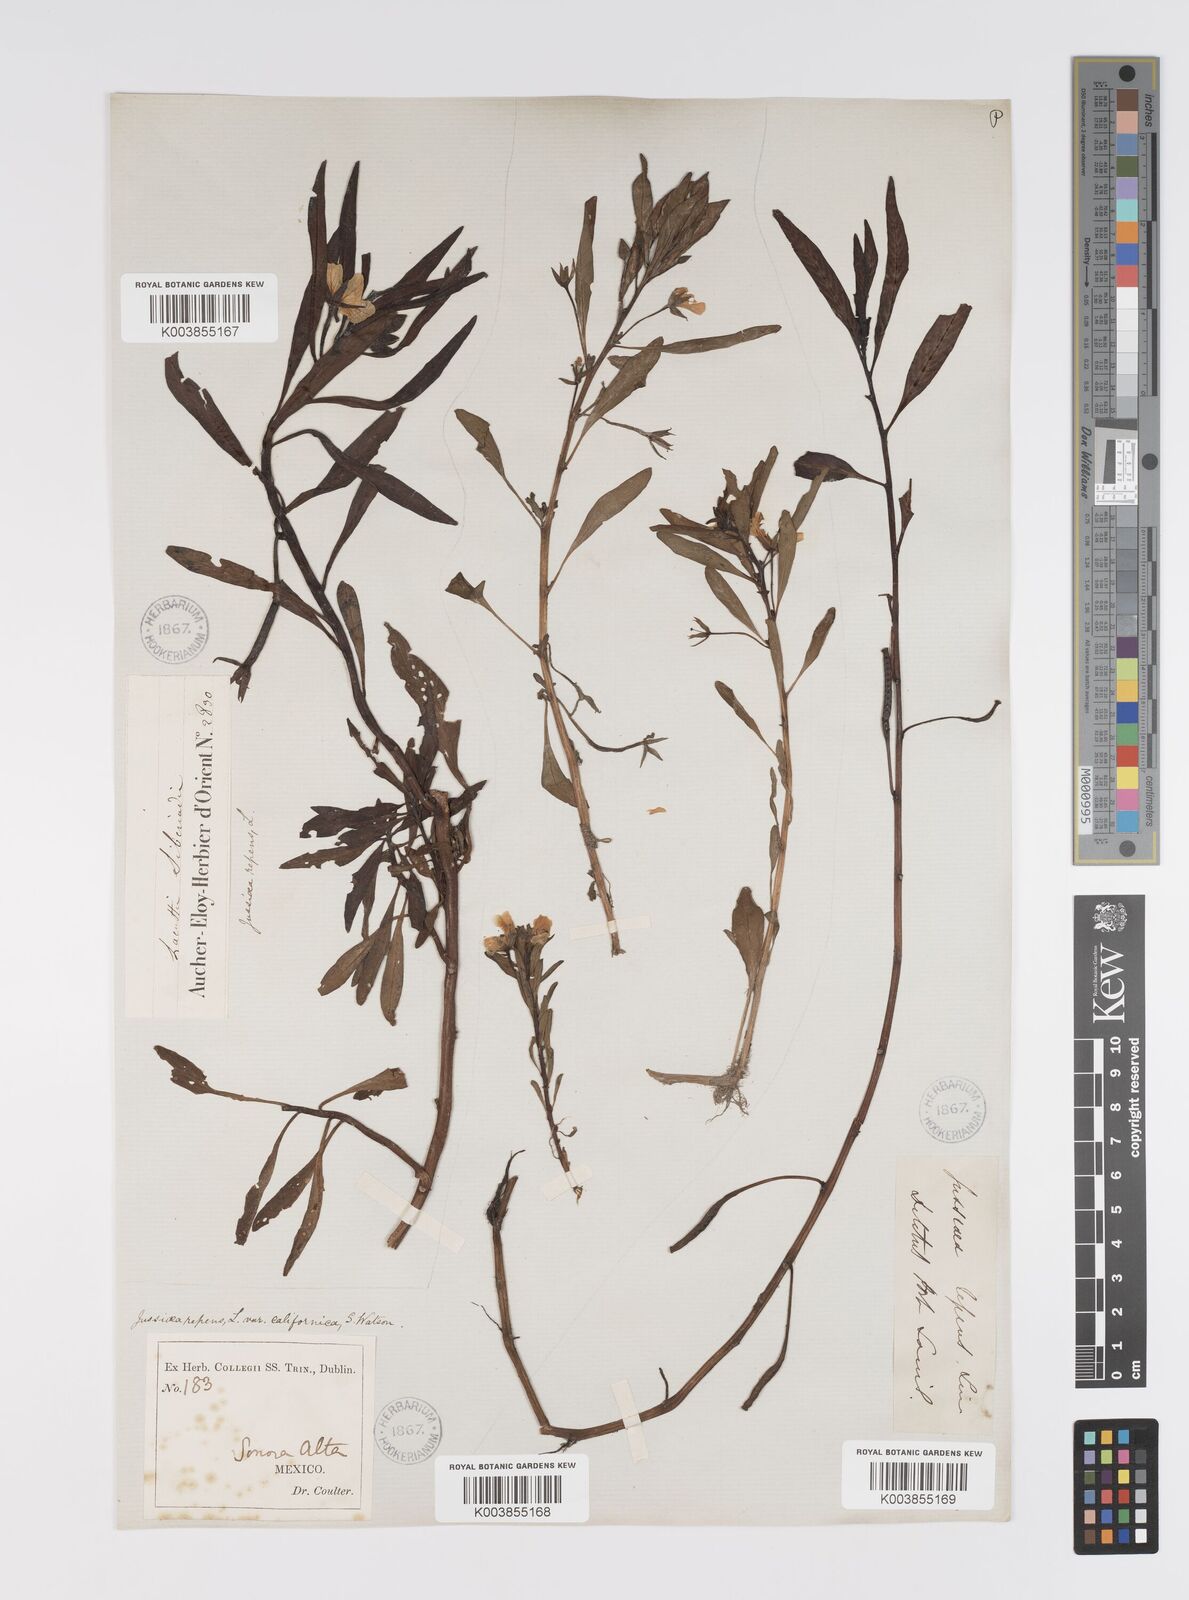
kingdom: Plantae
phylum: Tracheophyta
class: Magnoliopsida
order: Myrtales
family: Onagraceae
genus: Ludwigia
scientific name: Ludwigia adscendens
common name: Creeping water primrose
